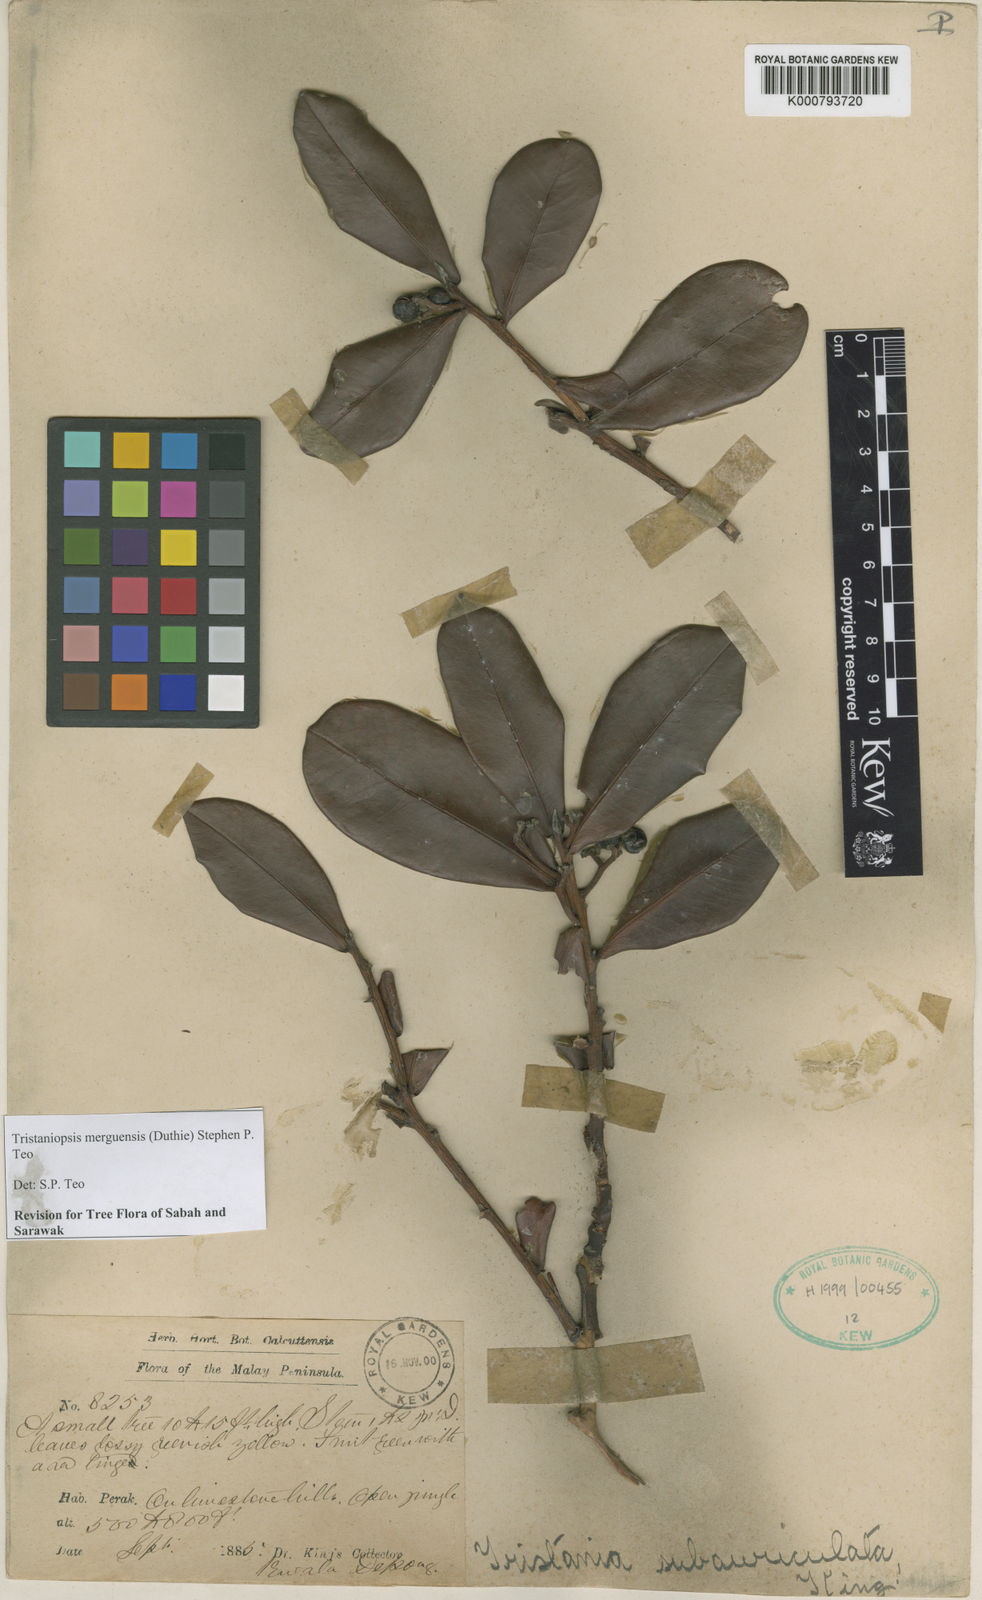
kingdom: Plantae
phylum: Tracheophyta
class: Magnoliopsida
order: Myrtales
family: Myrtaceae
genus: Tristaniopsis
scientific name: Tristaniopsis
